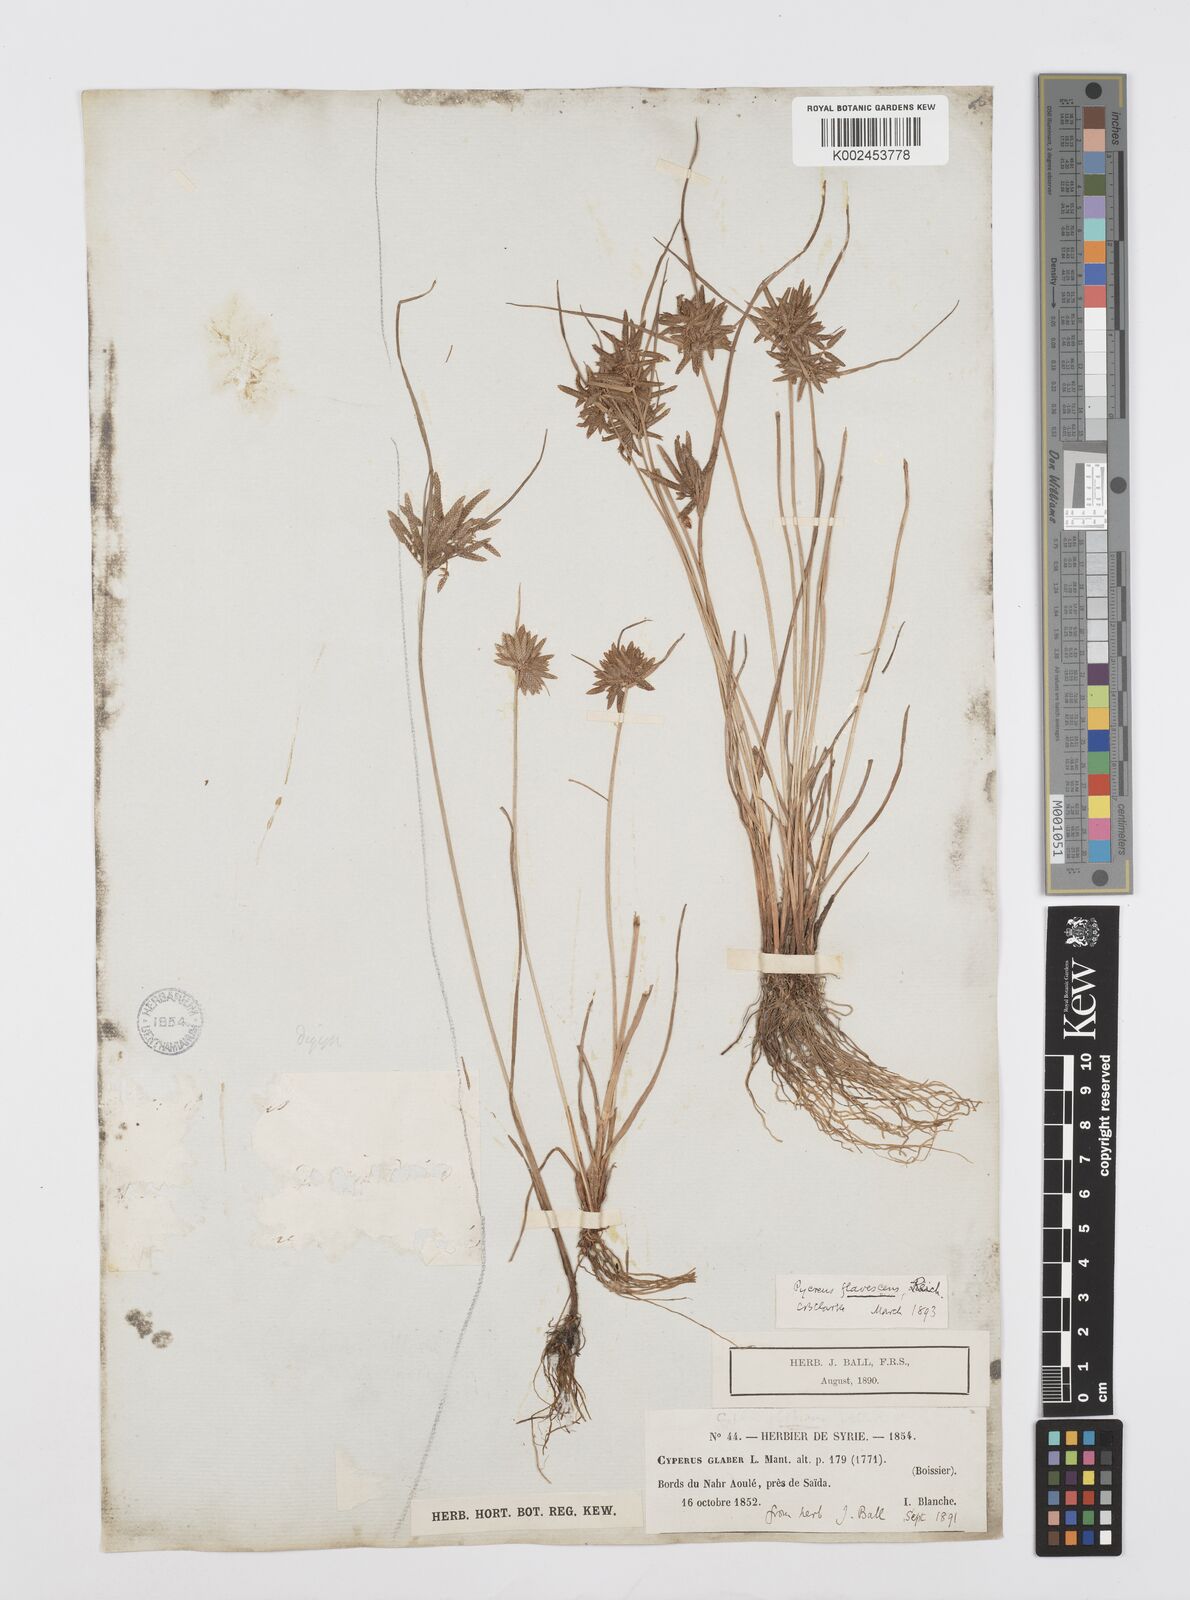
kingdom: Plantae
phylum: Tracheophyta
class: Liliopsida
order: Poales
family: Cyperaceae
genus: Cyperus
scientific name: Cyperus flavescens
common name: Yellow galingale
